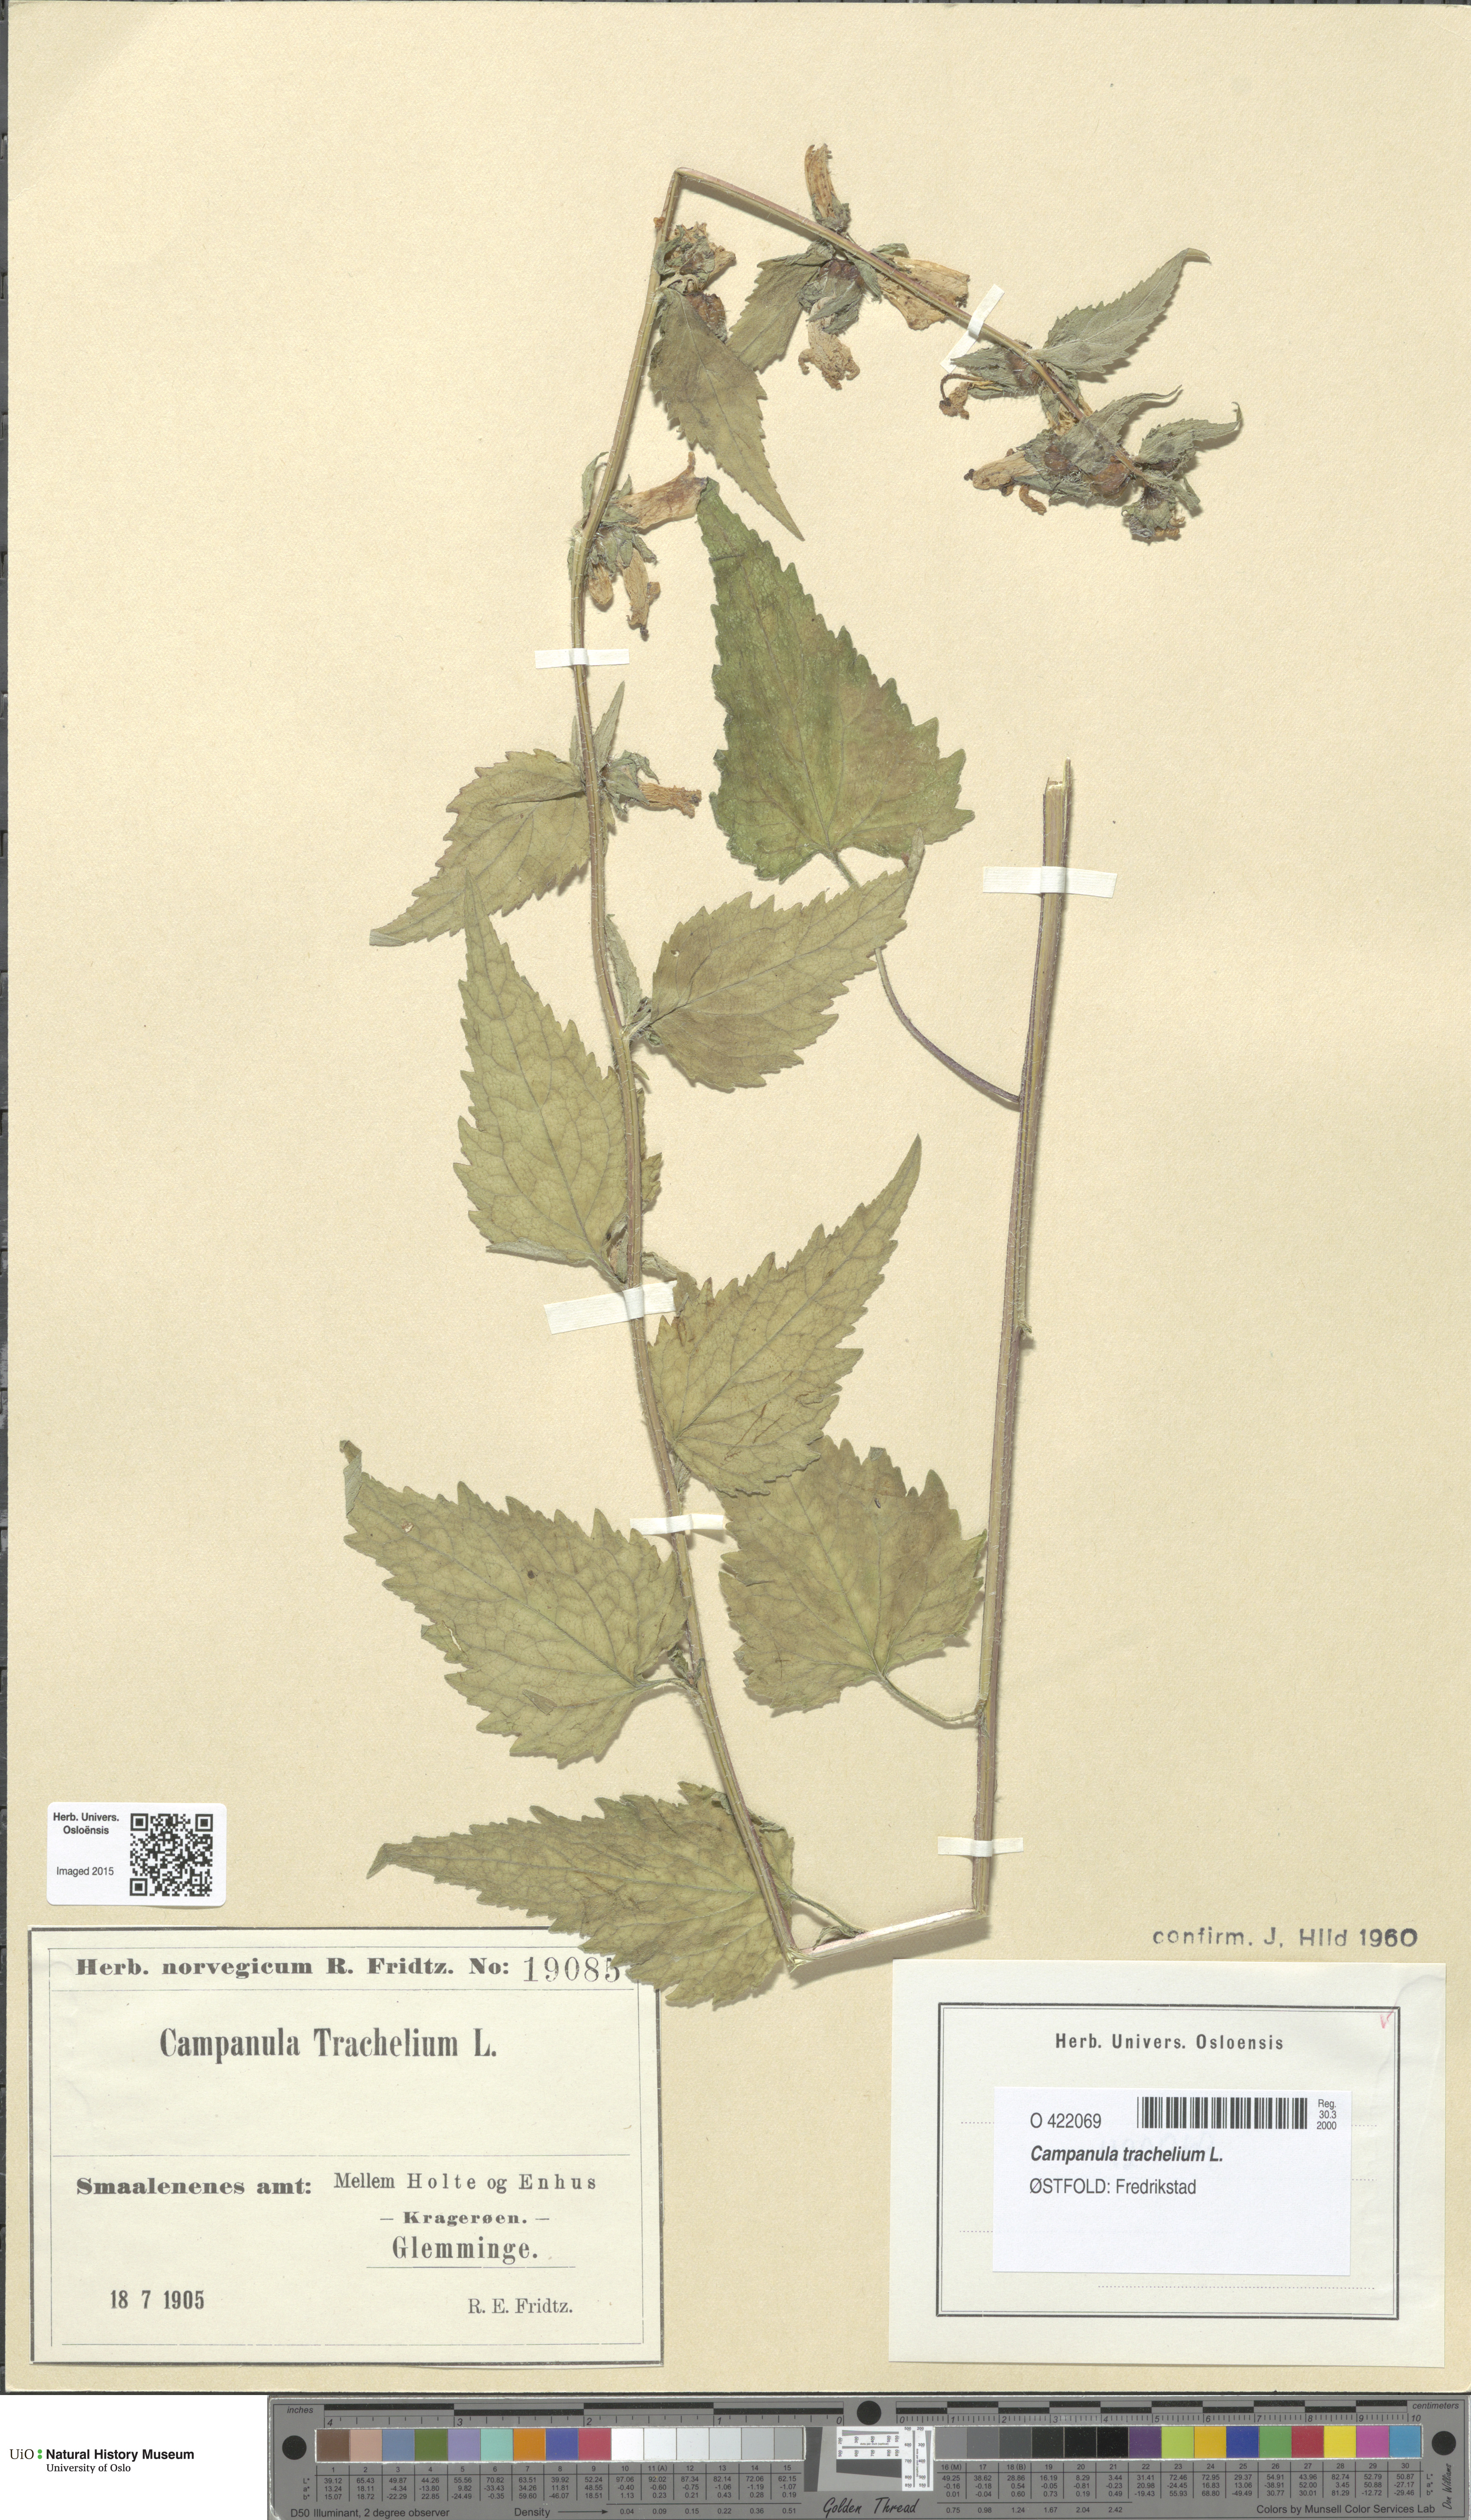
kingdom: Plantae
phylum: Tracheophyta
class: Magnoliopsida
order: Asterales
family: Campanulaceae
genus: Campanula
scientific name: Campanula trachelium
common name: Nettle-leaved bellflower
